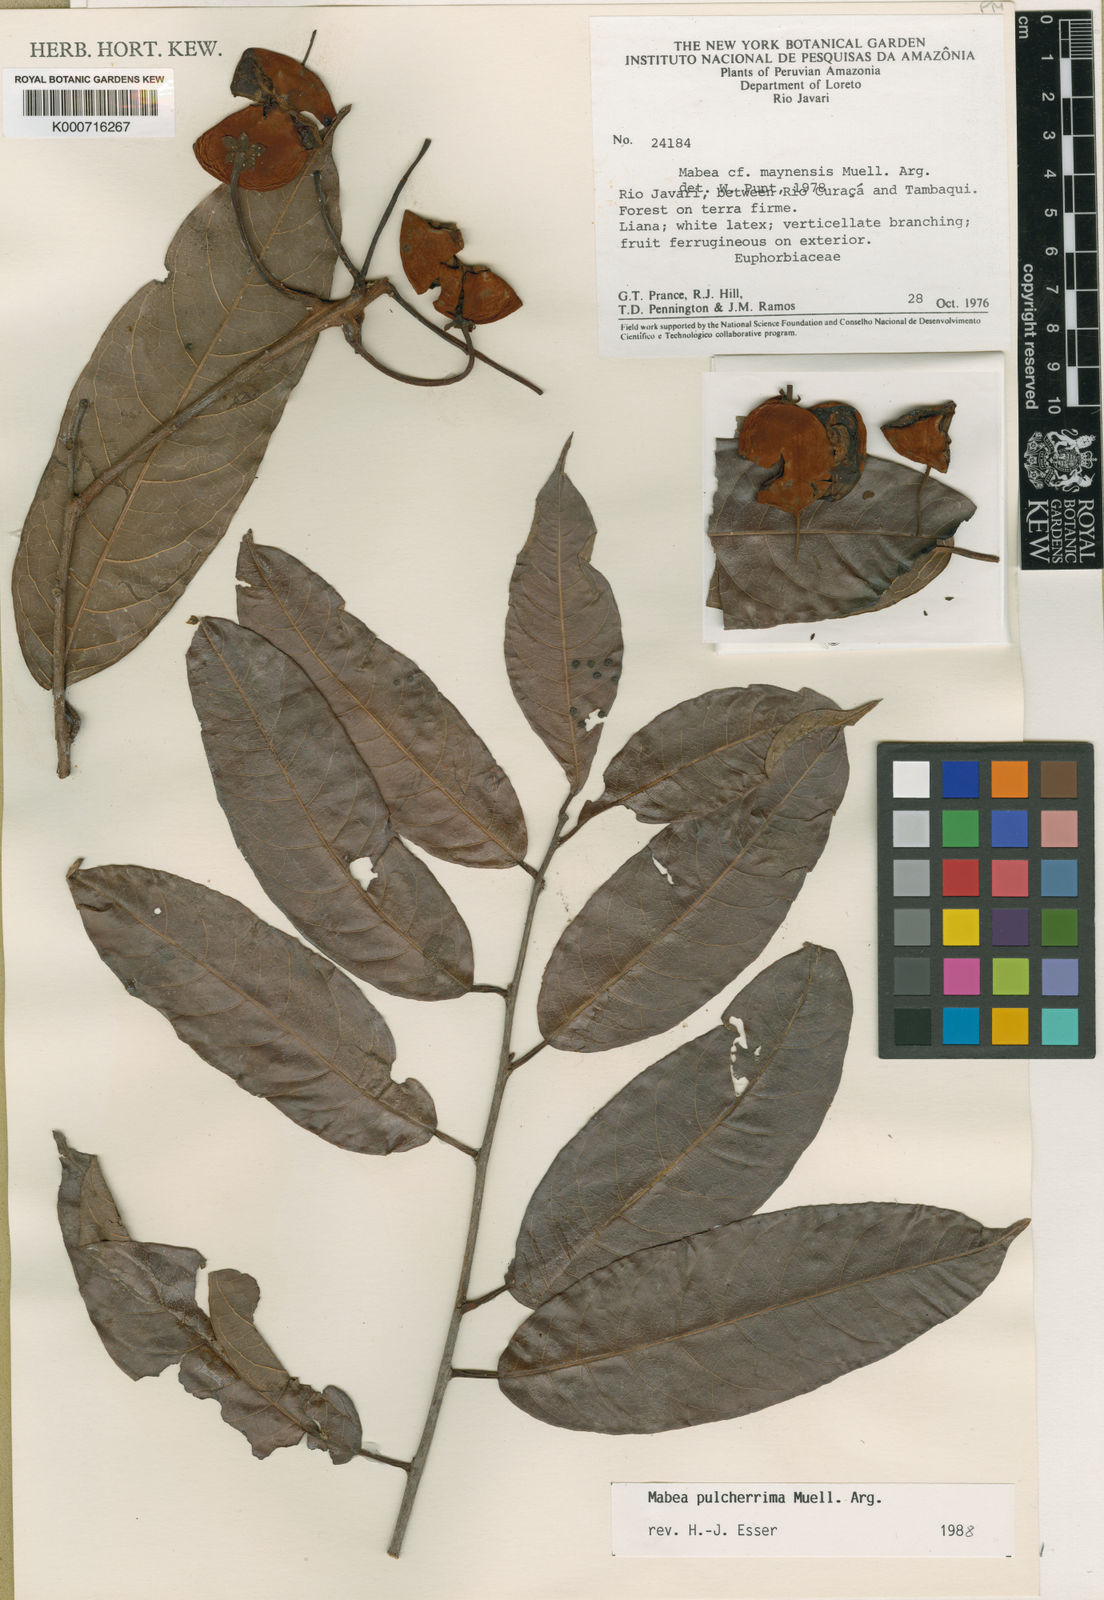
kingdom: Plantae
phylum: Tracheophyta
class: Magnoliopsida
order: Malpighiales
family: Euphorbiaceae
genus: Mabea
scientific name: Mabea
